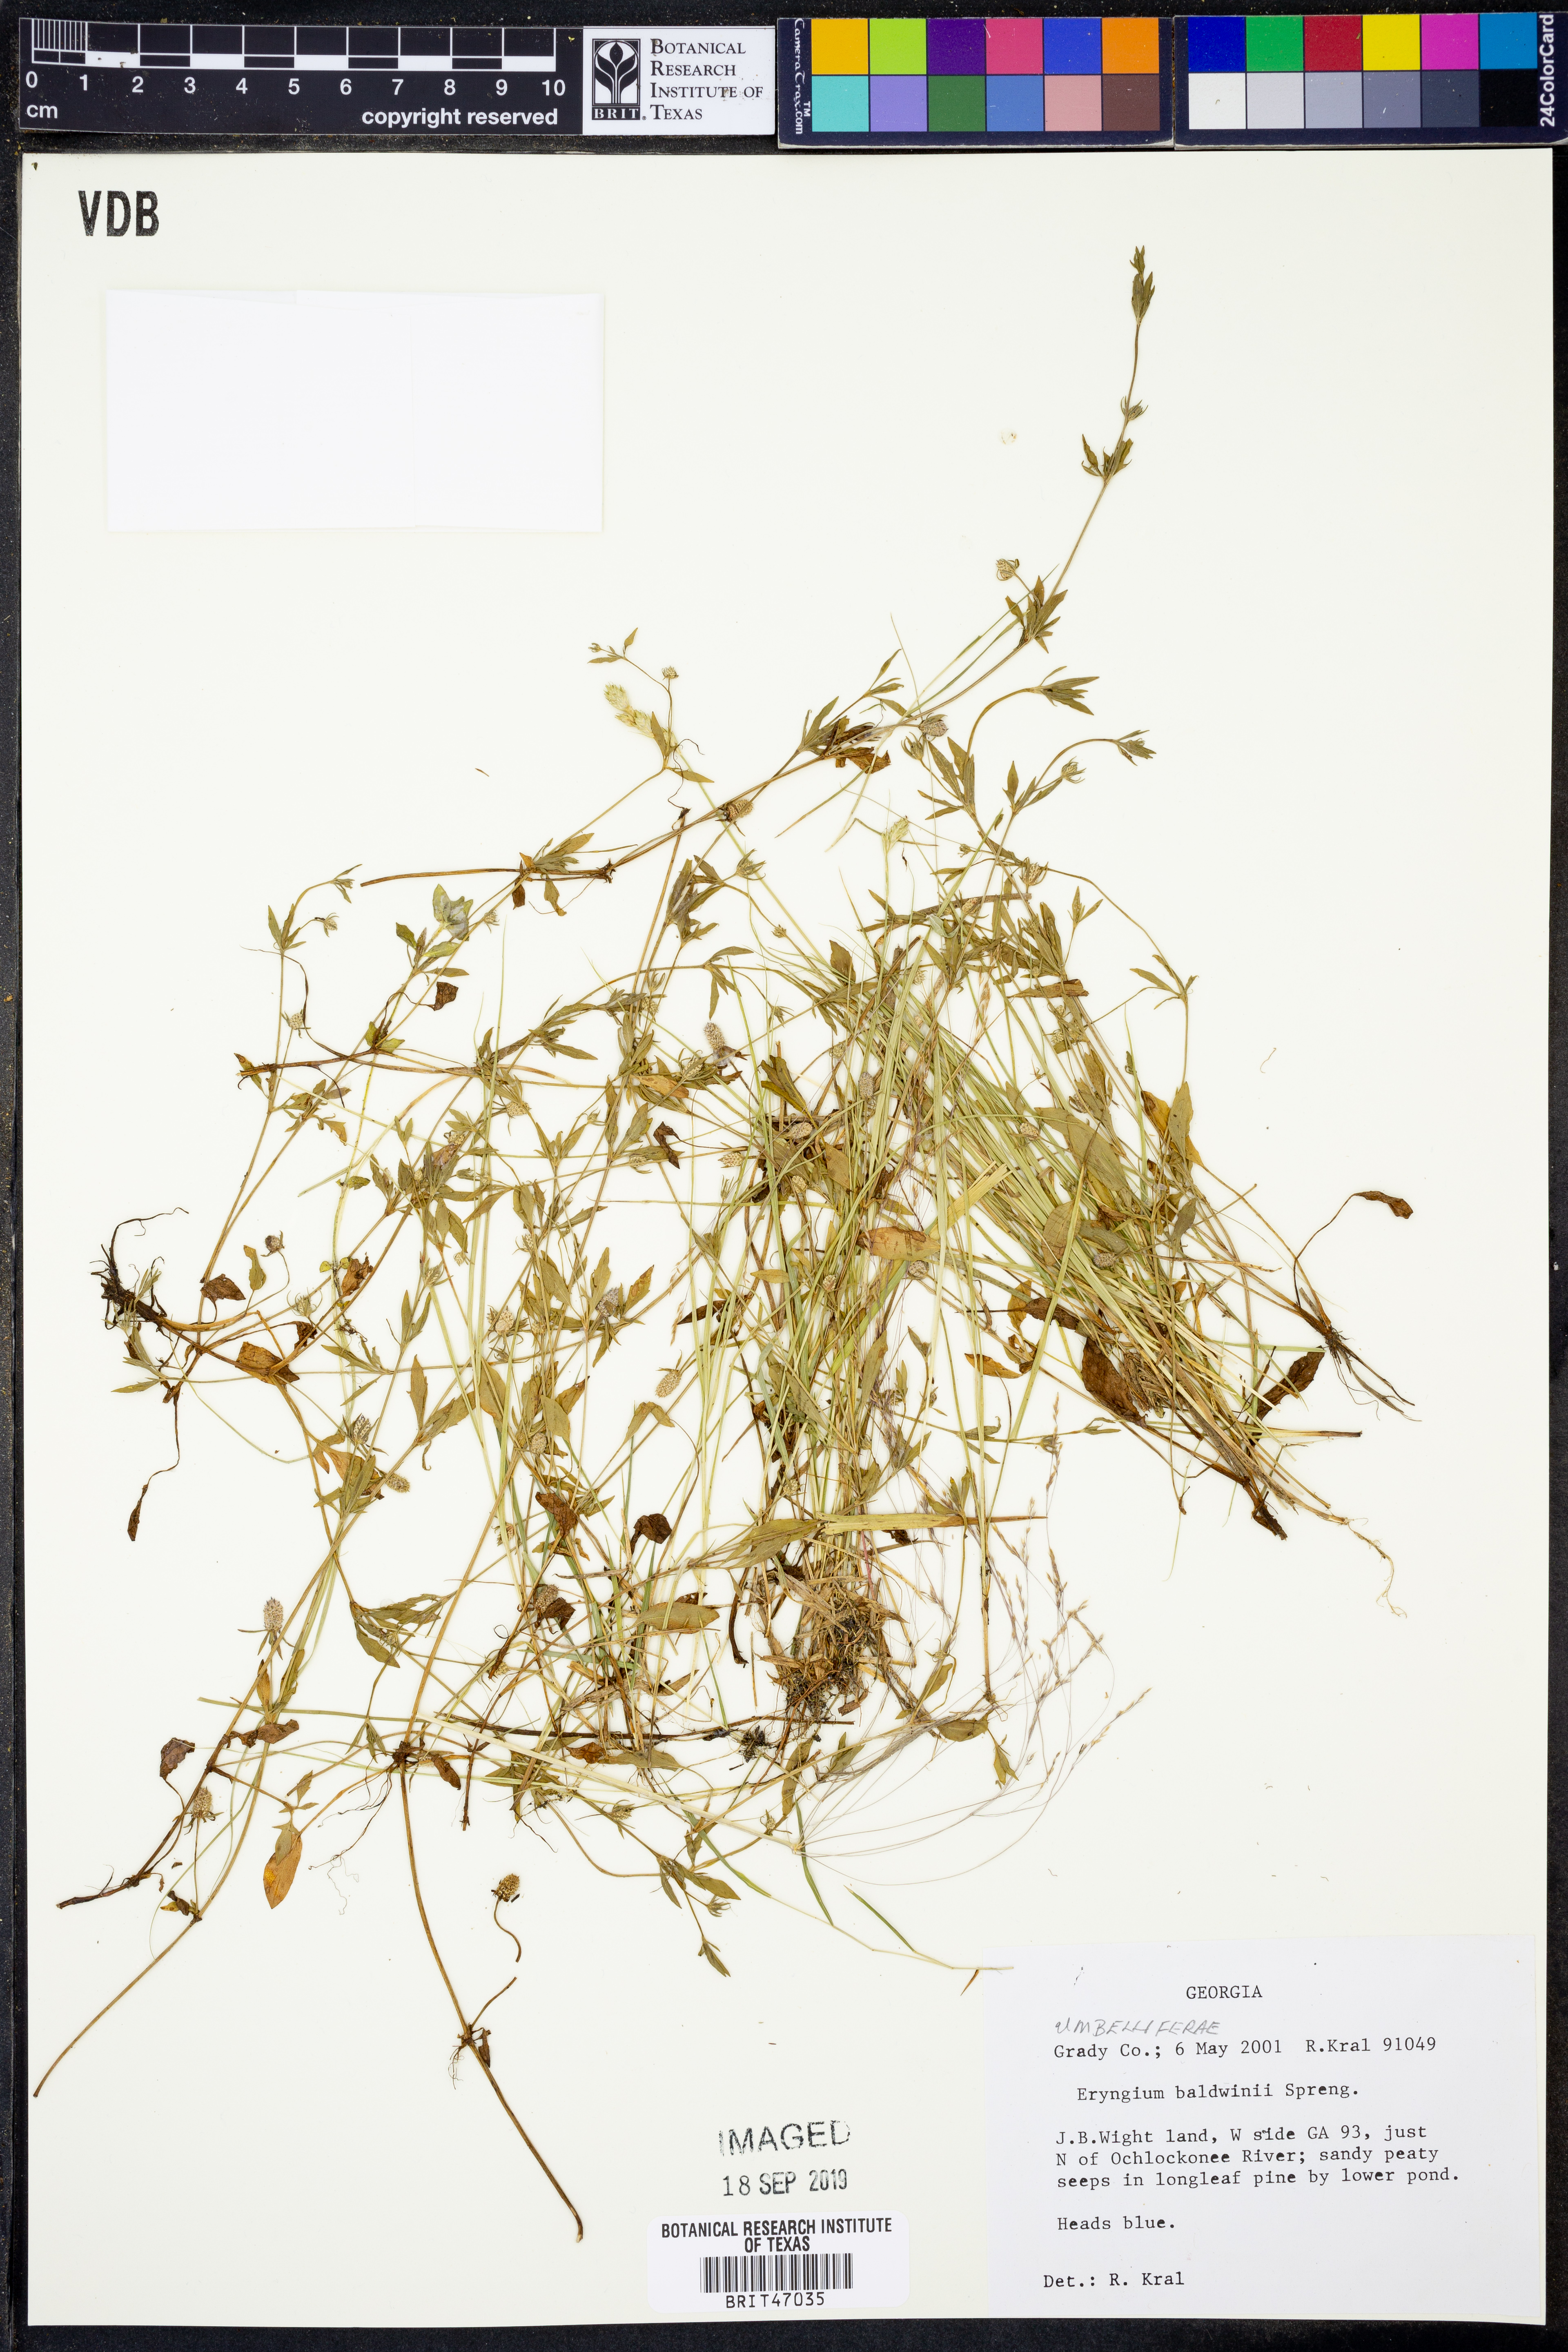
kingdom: Plantae
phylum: Tracheophyta
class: Magnoliopsida
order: Apiales
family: Apiaceae
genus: Eryngium
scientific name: Eryngium baldwinii
